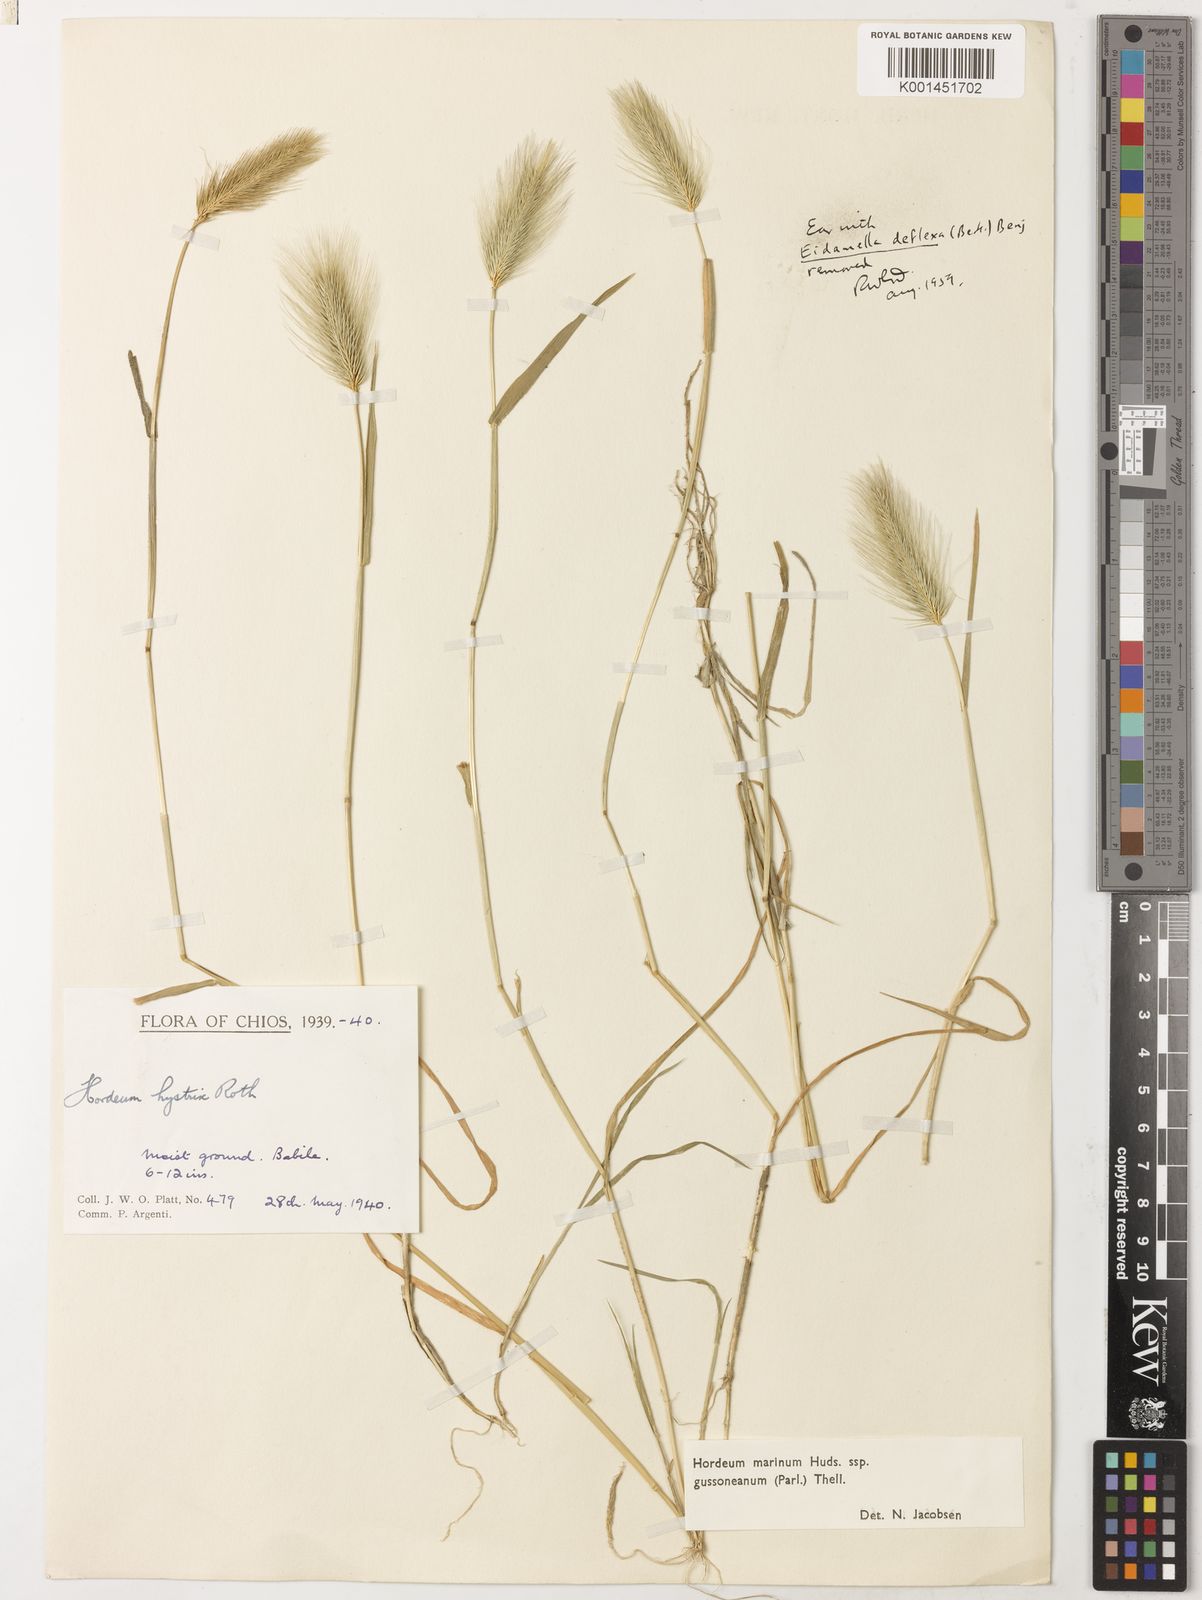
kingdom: Plantae
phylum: Tracheophyta
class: Liliopsida
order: Poales
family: Poaceae
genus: Hordeum
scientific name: Hordeum marinum
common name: Sea barley
